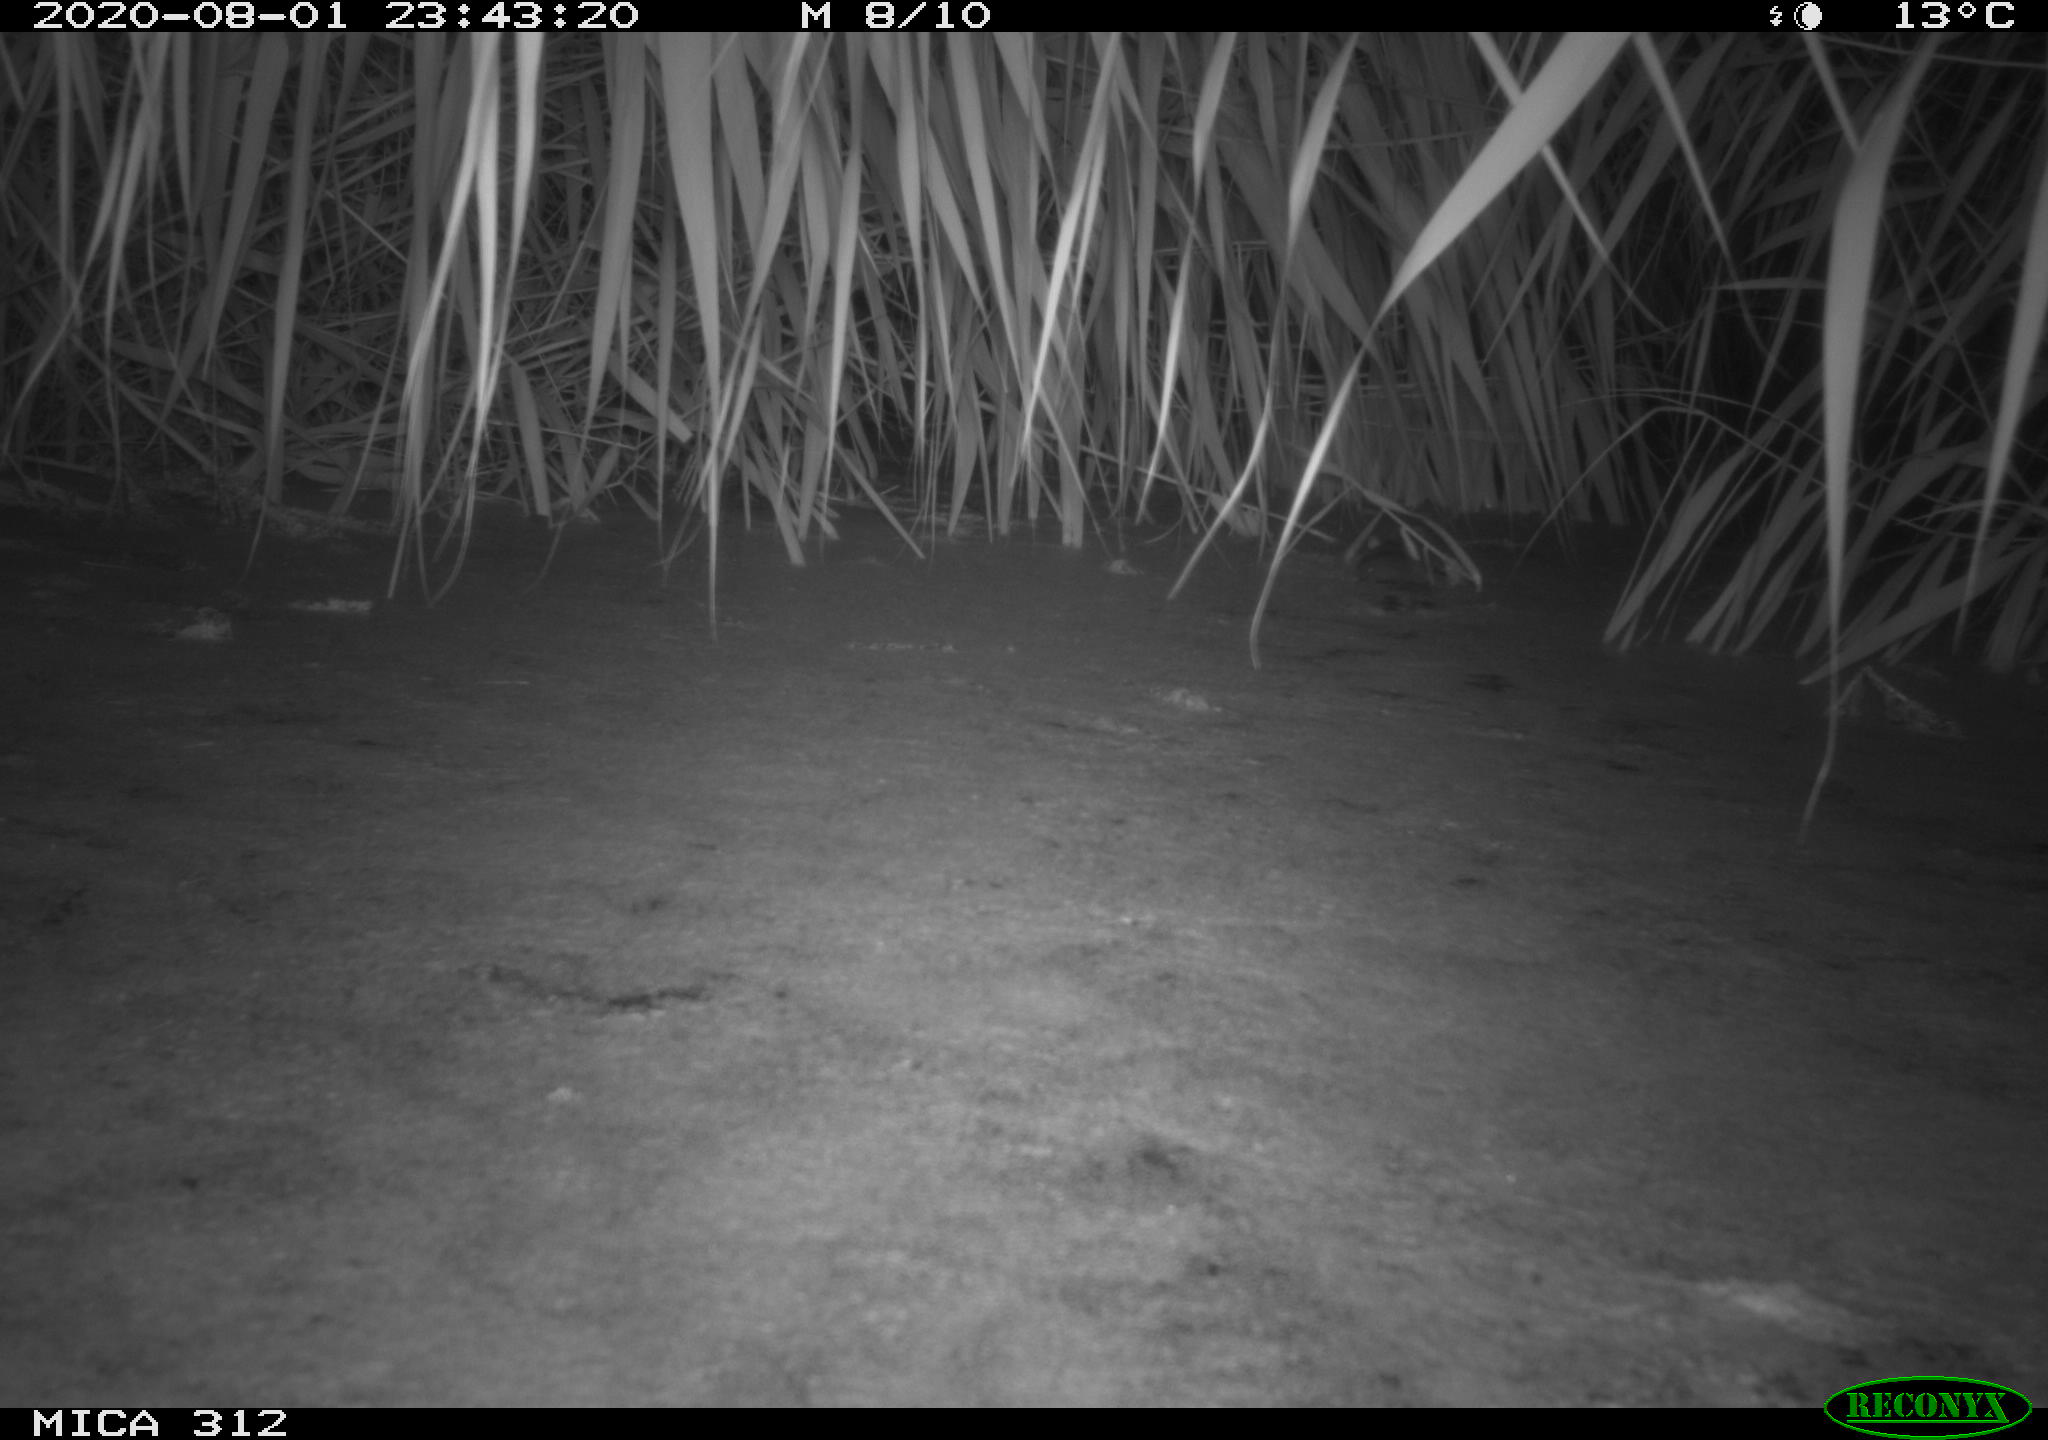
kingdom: Animalia
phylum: Chordata
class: Aves
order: Anseriformes
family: Anatidae
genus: Anas
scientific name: Anas platyrhynchos
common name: Mallard
